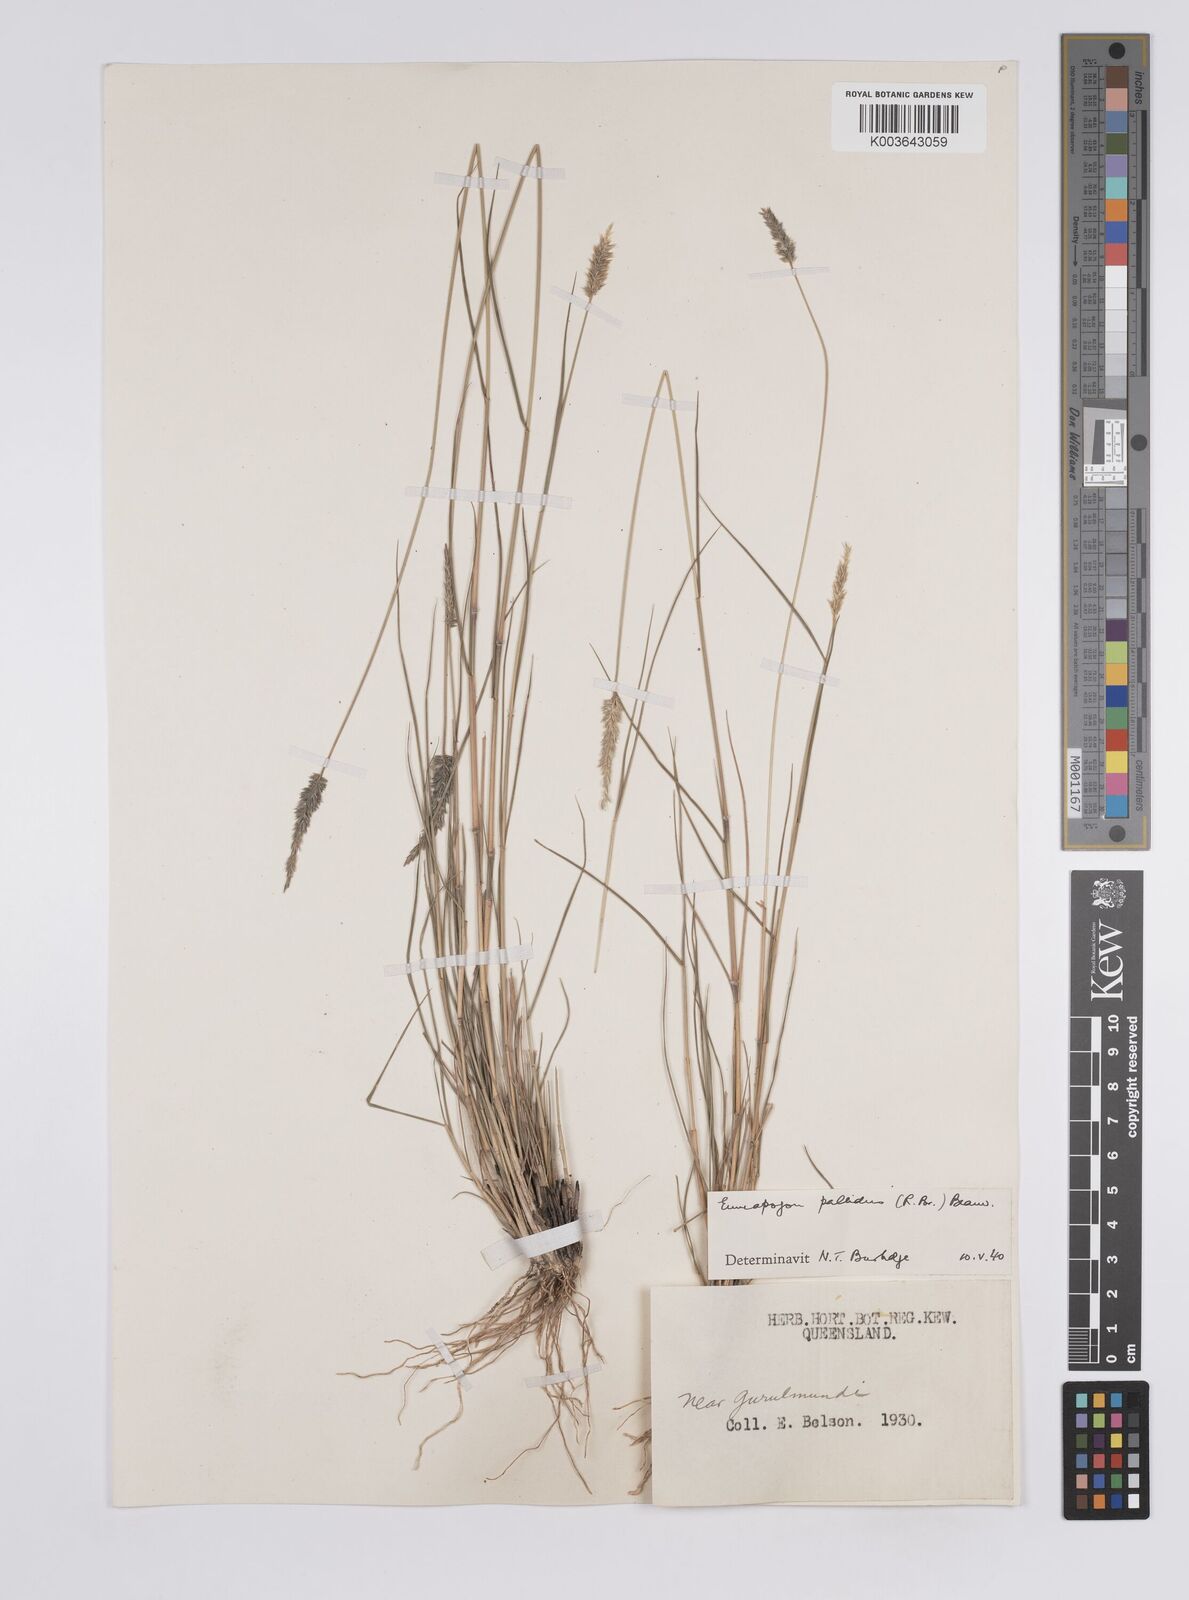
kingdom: Plantae
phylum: Tracheophyta
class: Liliopsida
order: Poales
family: Poaceae
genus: Enneapogon
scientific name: Enneapogon pallidus
